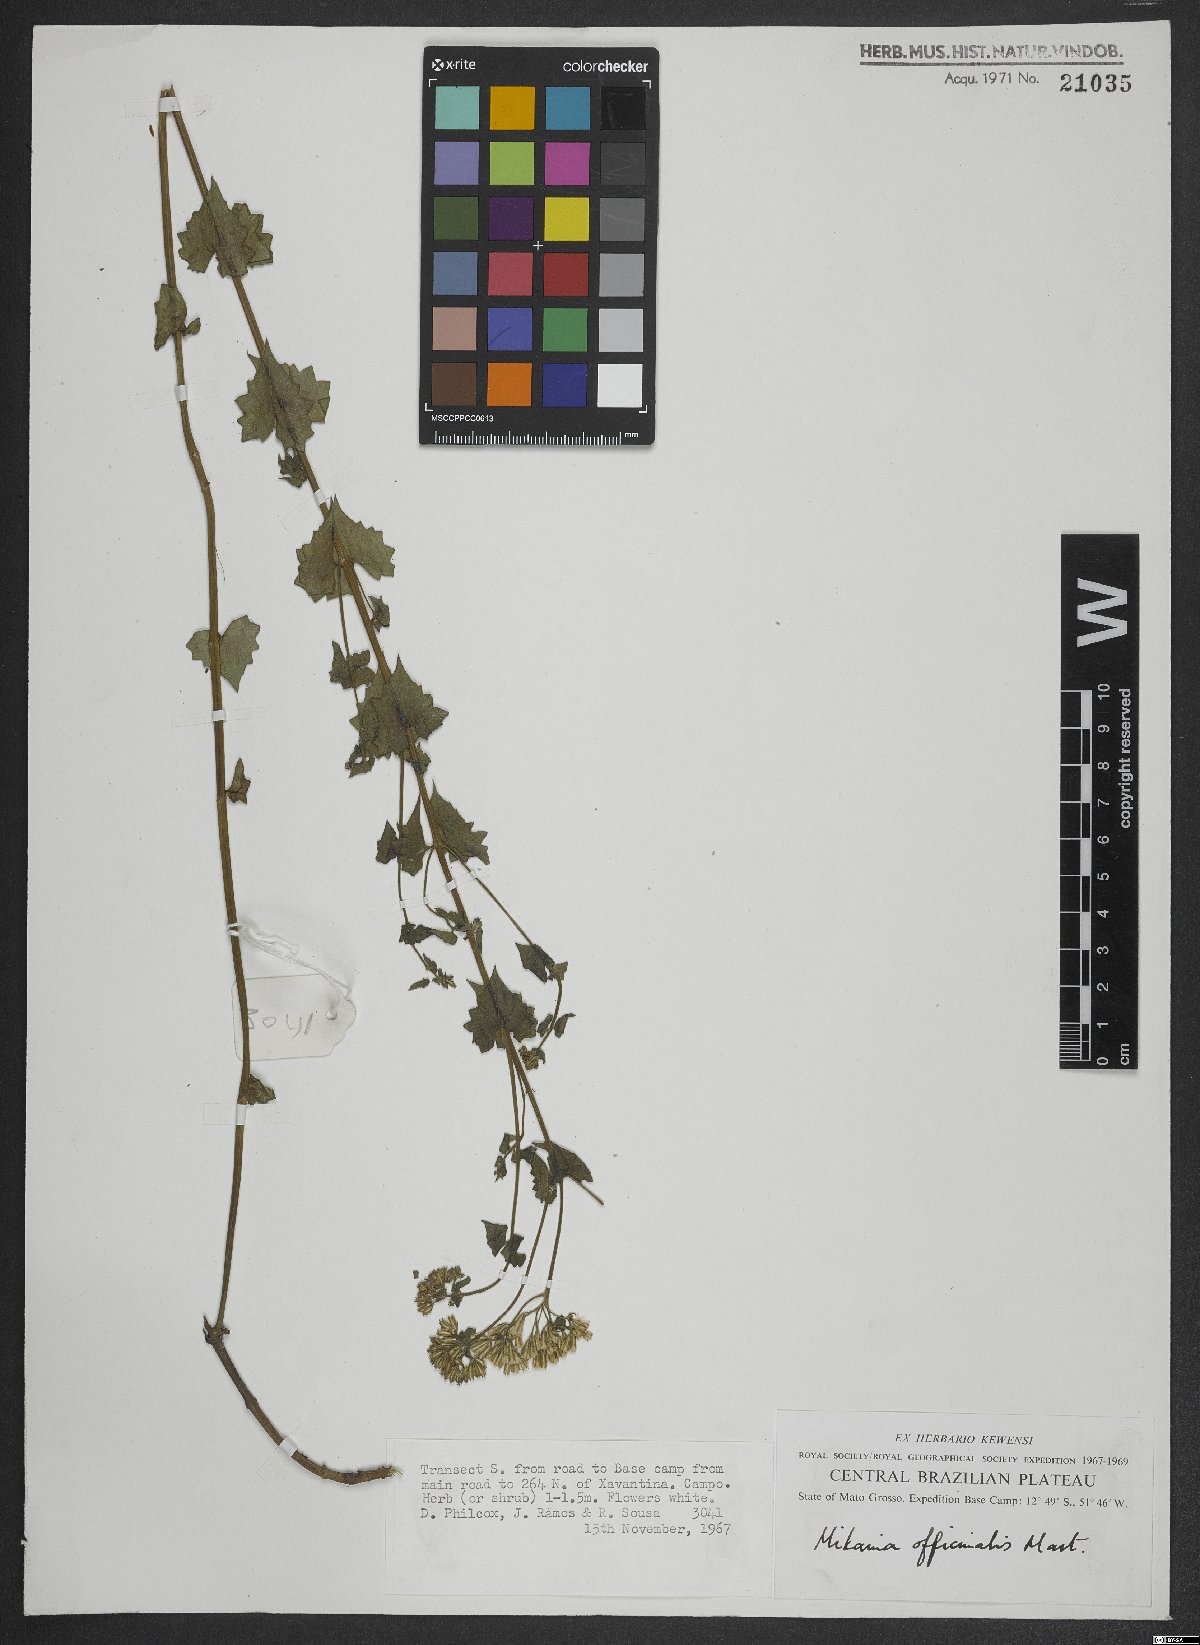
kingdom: Plantae
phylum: Tracheophyta
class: Magnoliopsida
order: Asterales
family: Asteraceae
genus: Mikania
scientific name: Mikania officinalis
